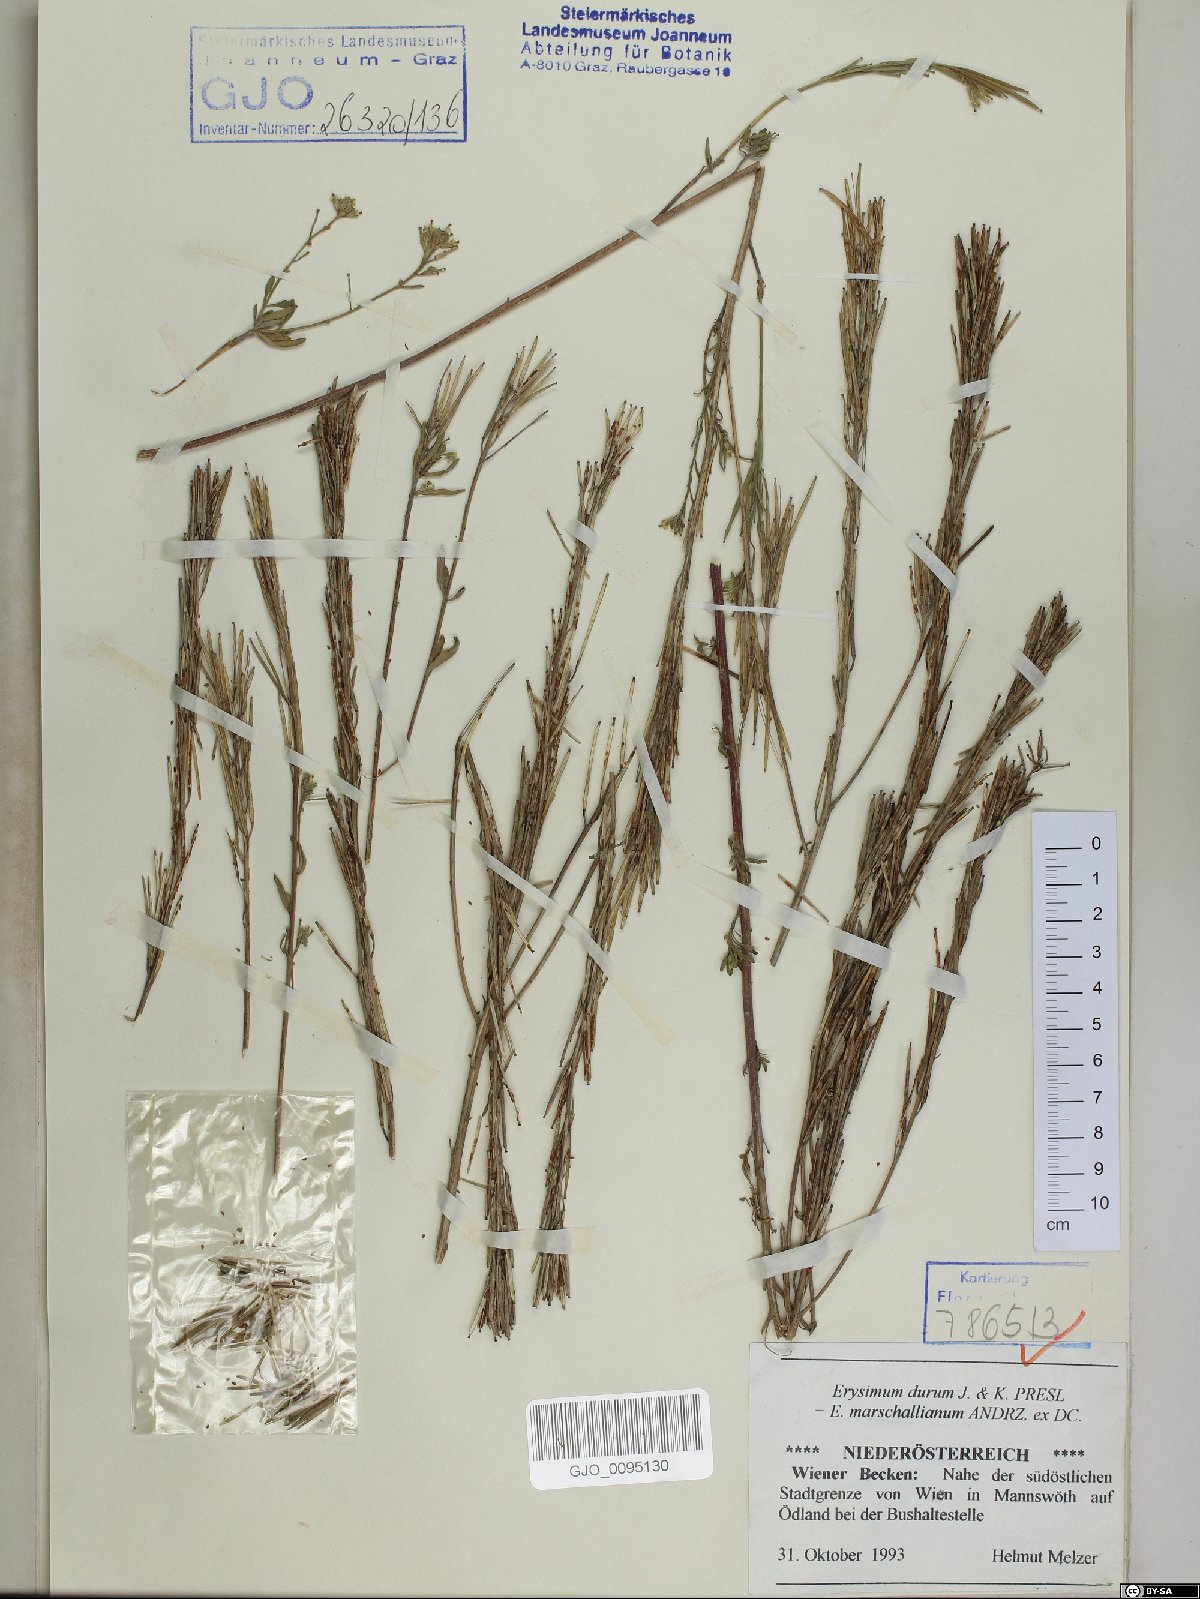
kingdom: Plantae
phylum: Tracheophyta
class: Magnoliopsida
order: Brassicales
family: Brassicaceae
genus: Erysimum
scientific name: Erysimum marschallianum
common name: Hard wallflower
